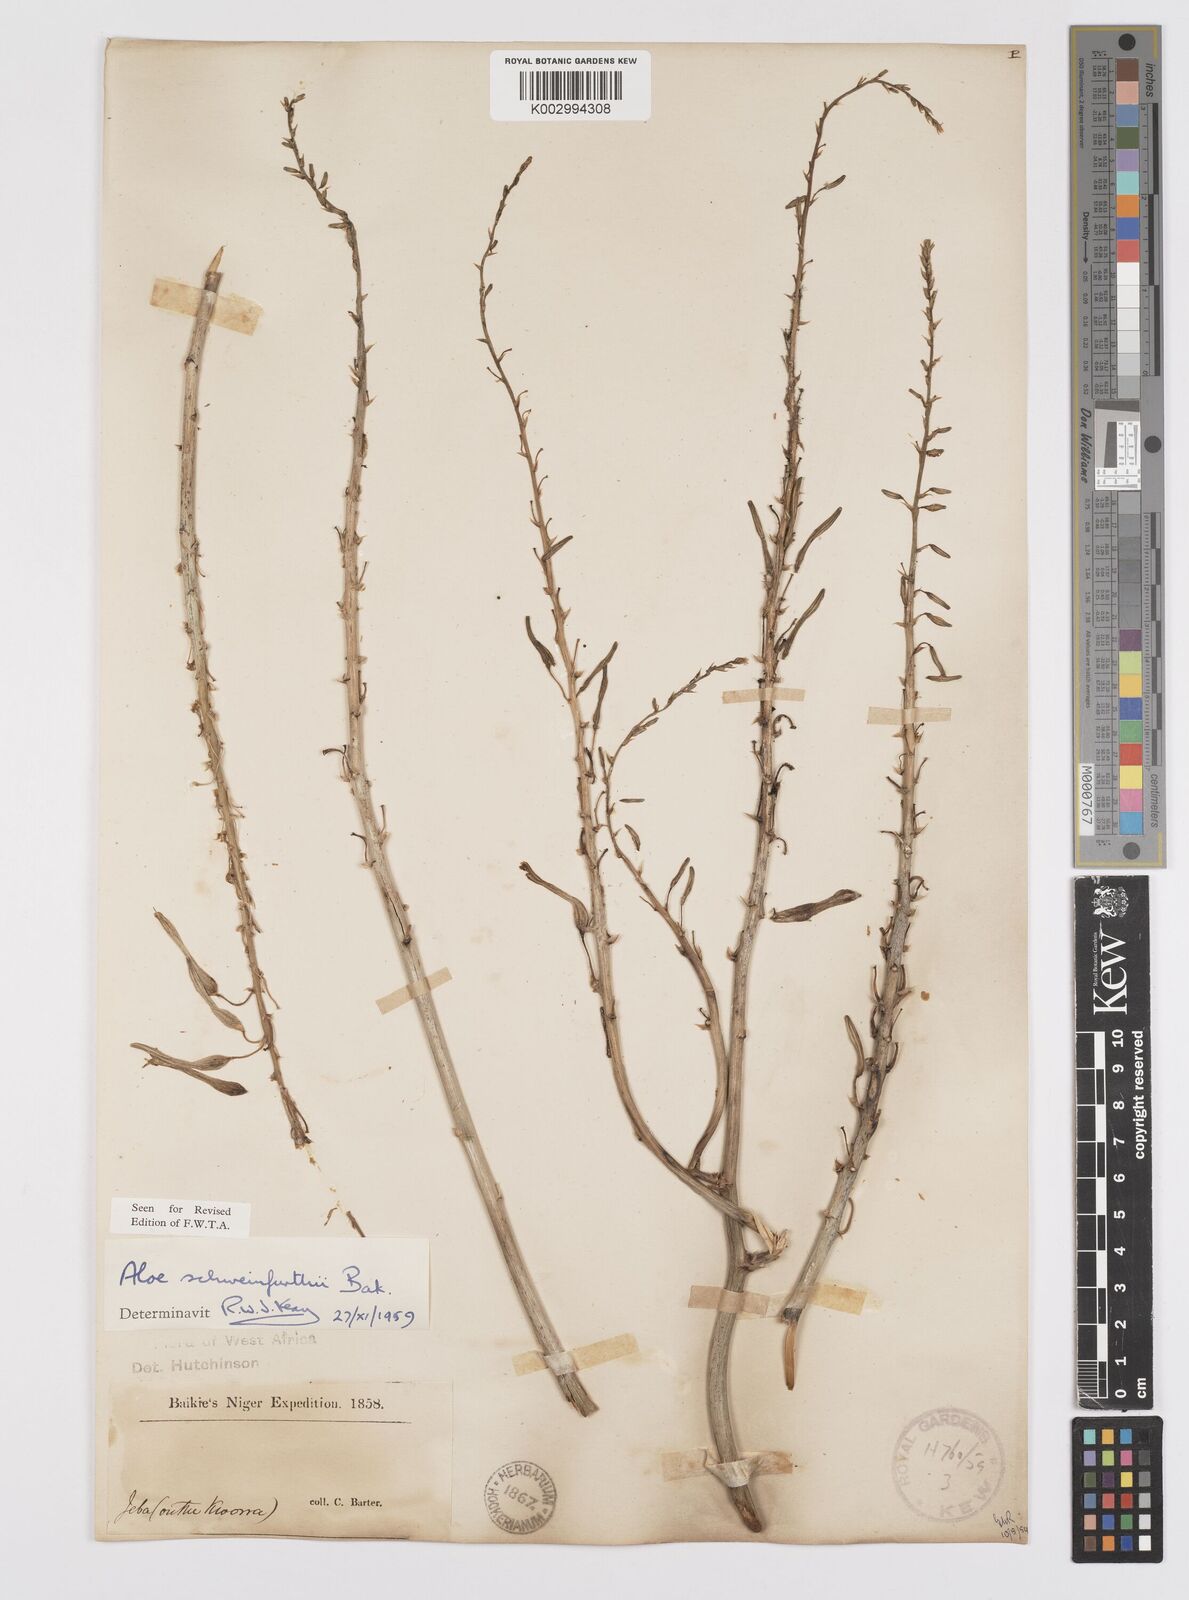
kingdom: Plantae
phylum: Tracheophyta
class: Liliopsida
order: Asparagales
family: Asphodelaceae
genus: Aloe
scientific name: Aloe schweinfurthii
